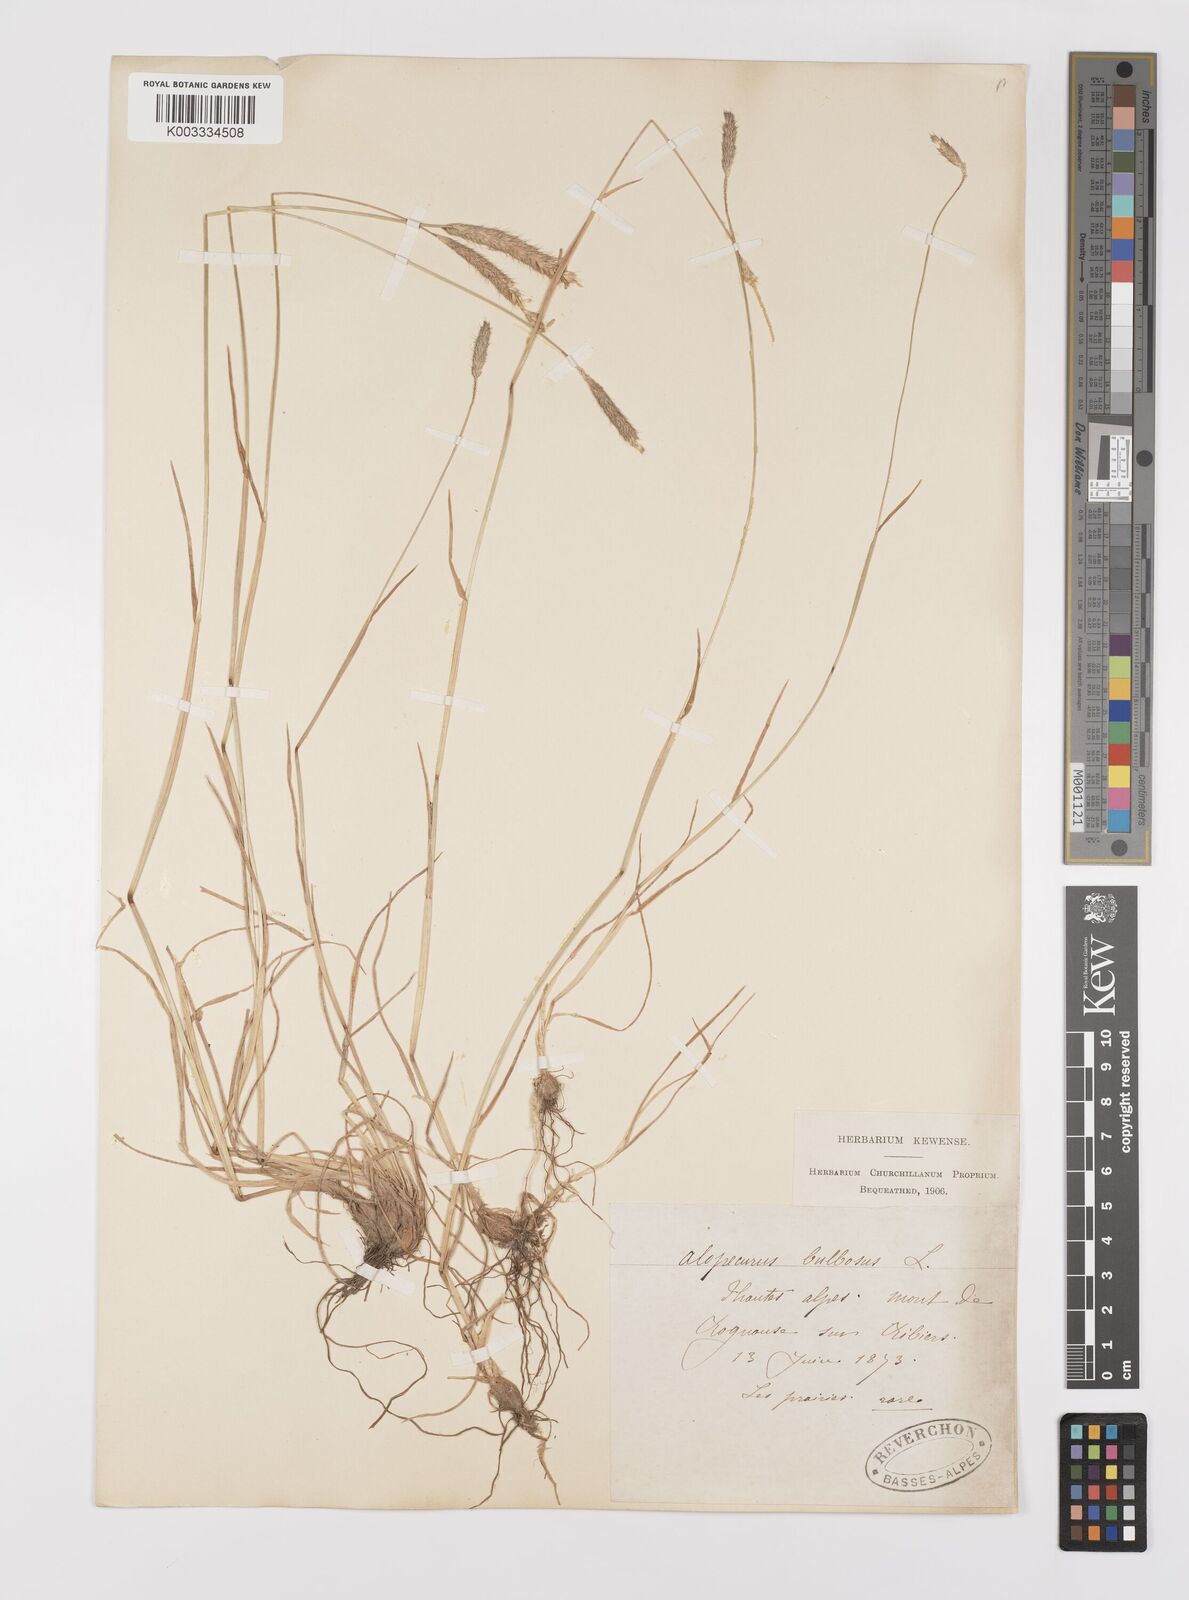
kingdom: Plantae
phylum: Tracheophyta
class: Liliopsida
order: Poales
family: Poaceae
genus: Alopecurus
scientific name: Alopecurus bulbosus
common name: Bulbous foxtail
